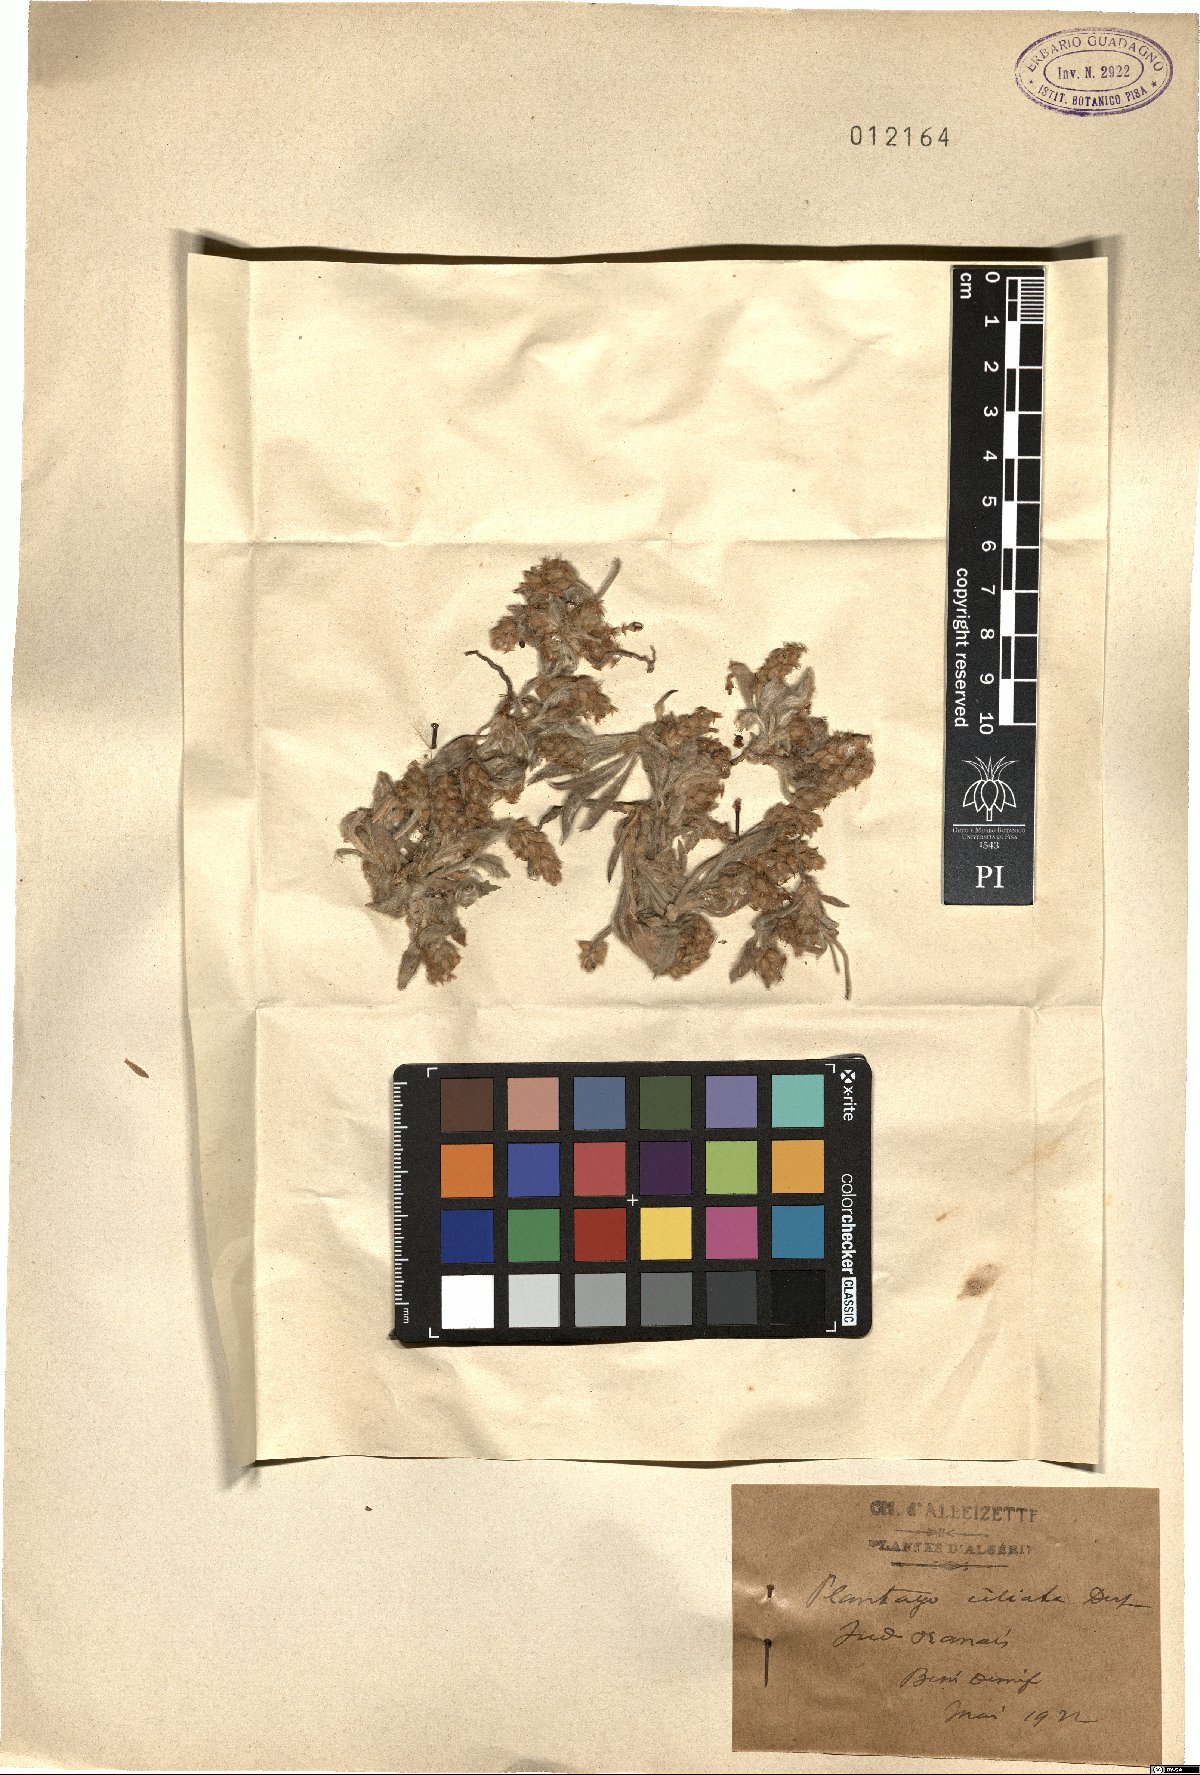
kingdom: Plantae
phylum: Tracheophyta
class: Magnoliopsida
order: Lamiales
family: Plantaginaceae
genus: Plantago
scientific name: Plantago ciliata
